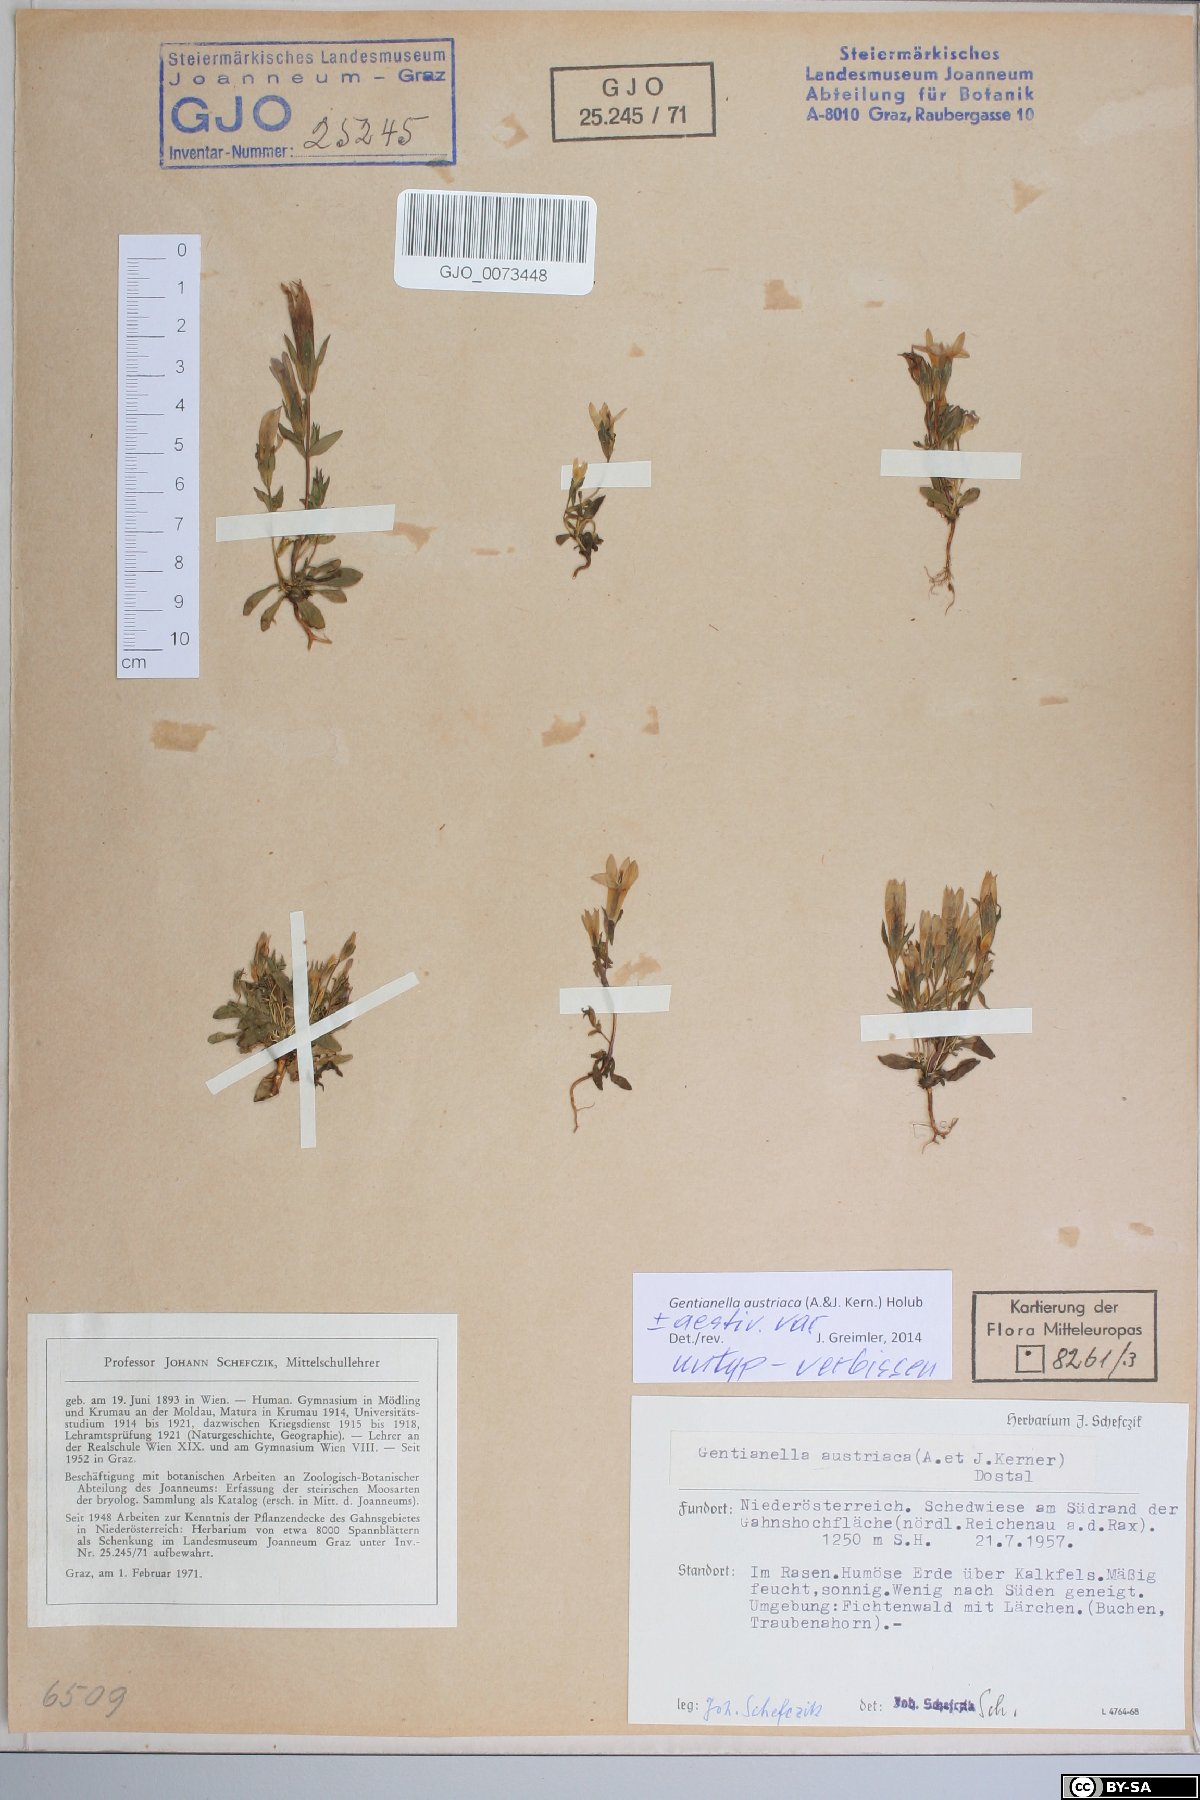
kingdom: Plantae
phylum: Tracheophyta
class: Magnoliopsida
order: Gentianales
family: Gentianaceae
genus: Gentianella
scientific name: Gentianella austriaca
